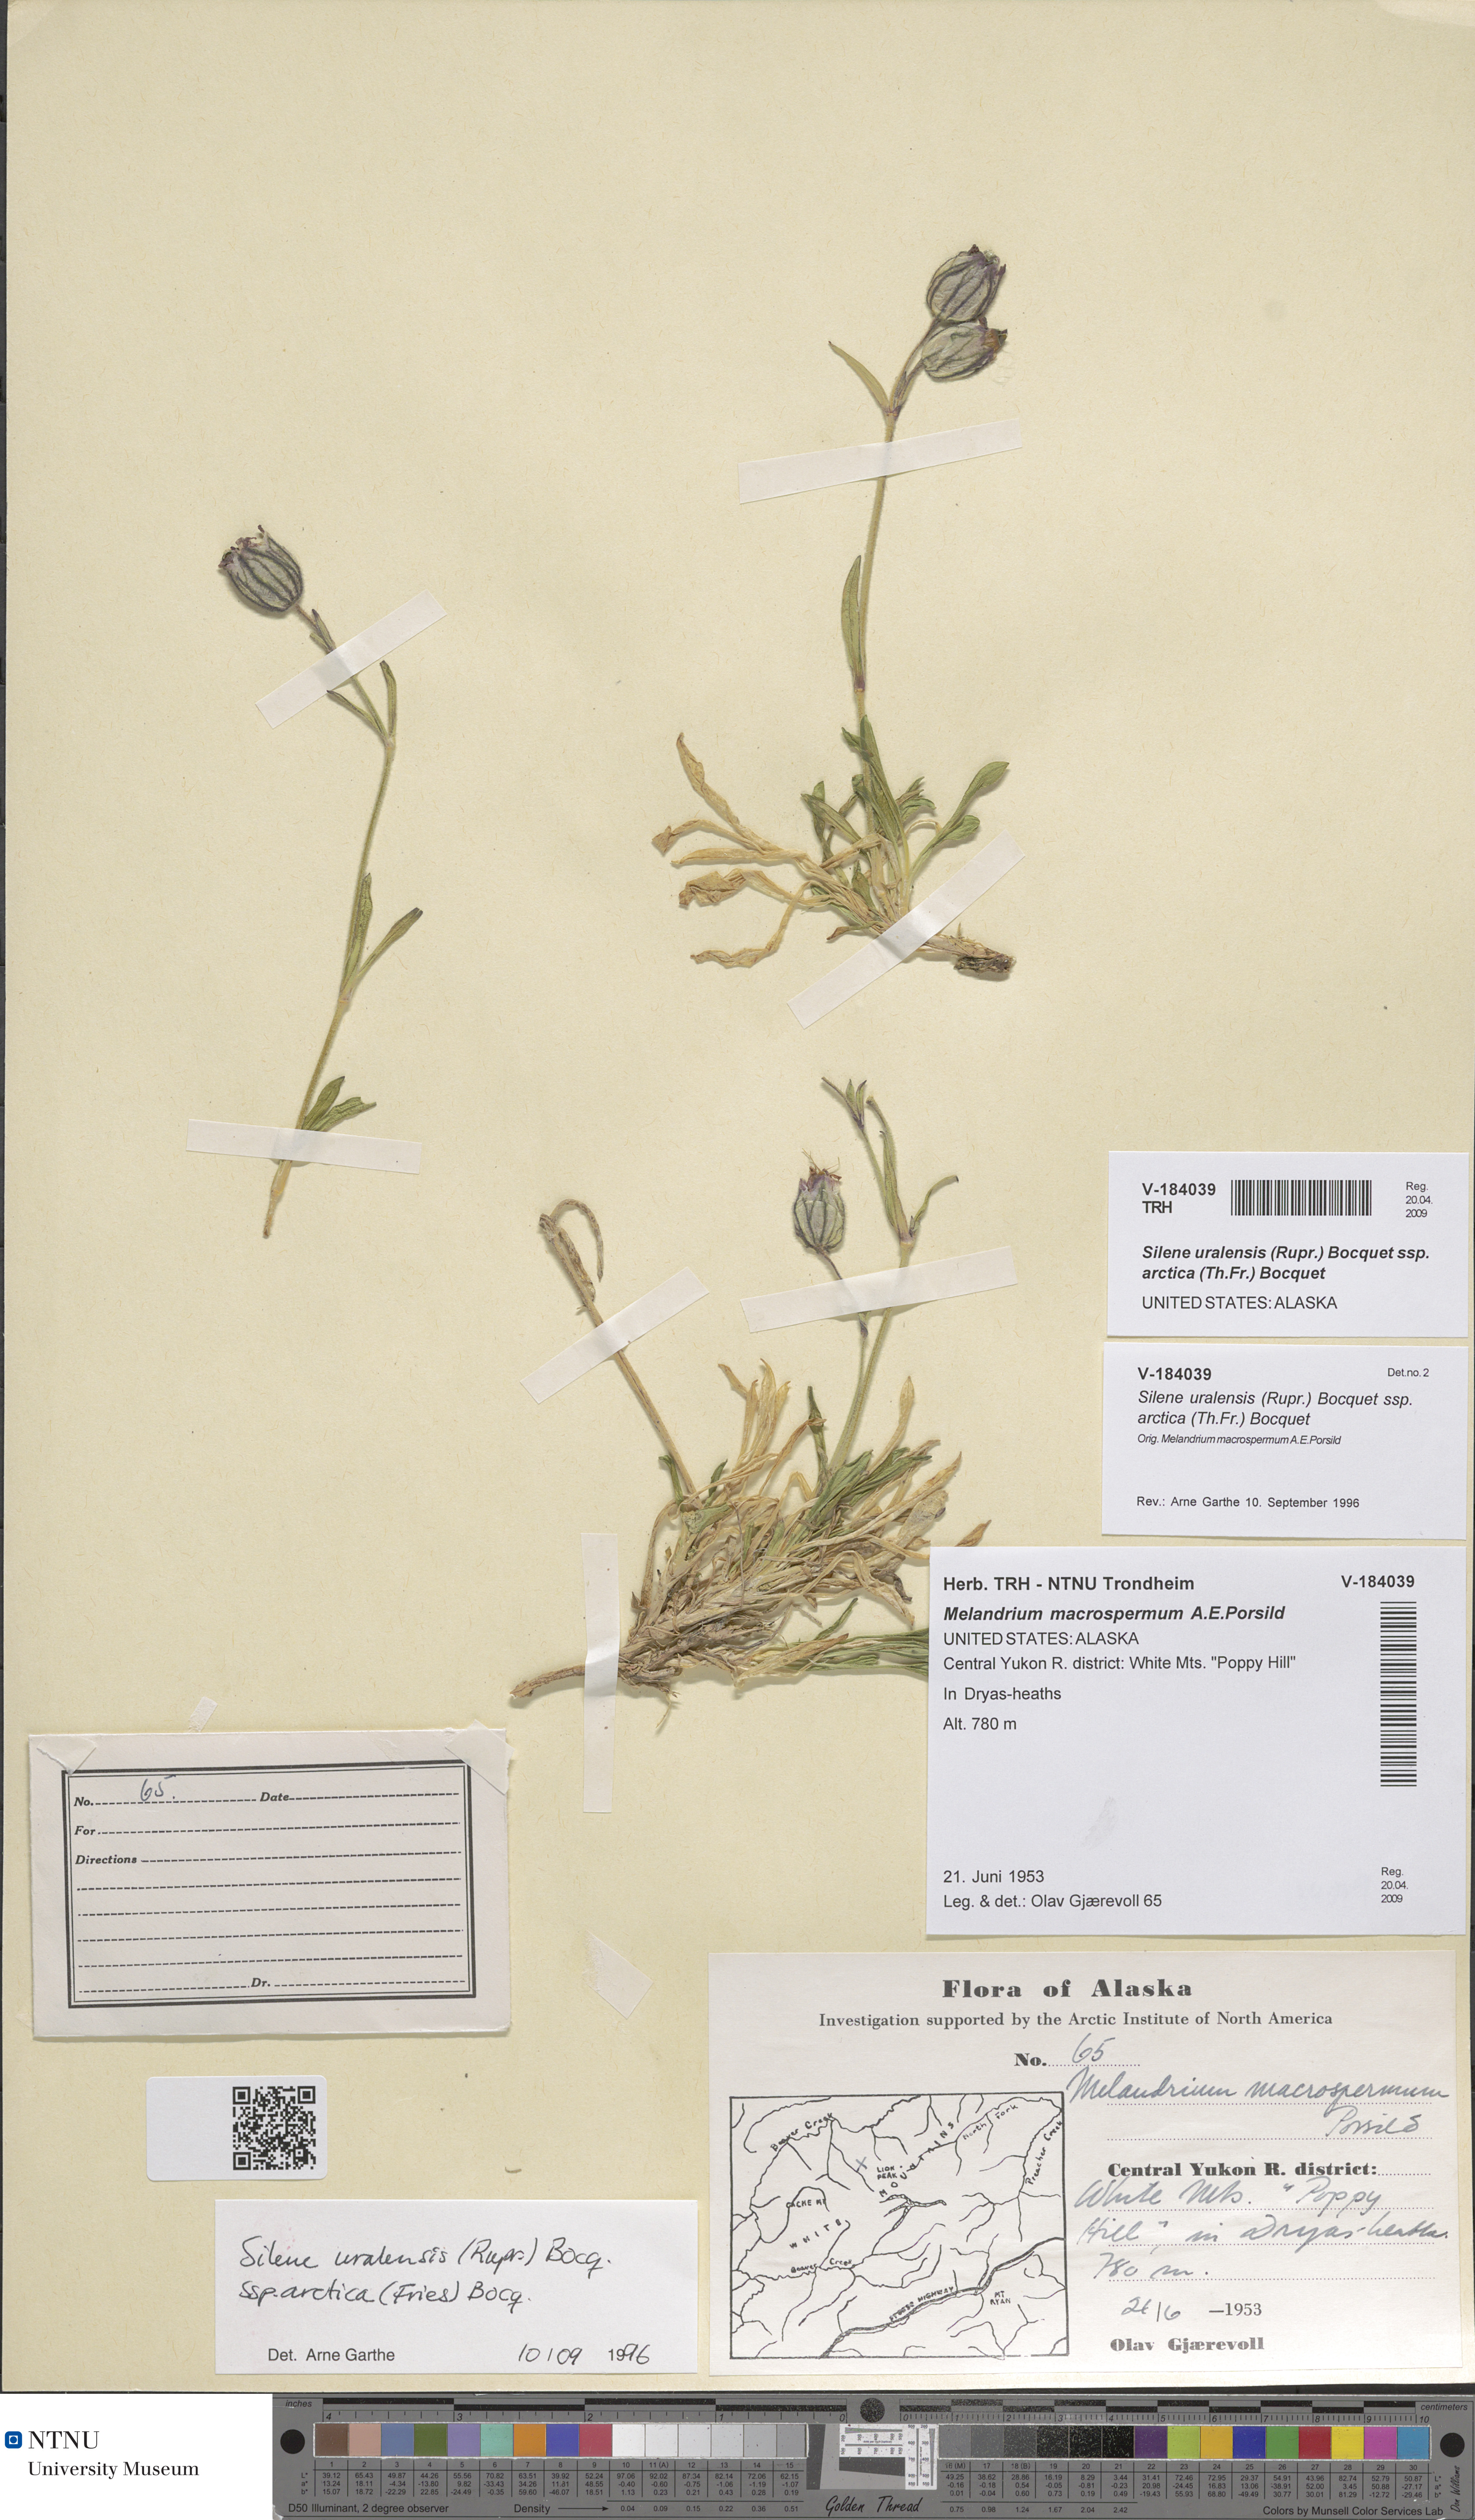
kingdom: Plantae
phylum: Tracheophyta
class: Magnoliopsida
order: Caryophyllales
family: Caryophyllaceae
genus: Silene
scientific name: Silene uralensis
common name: Nodding campion
